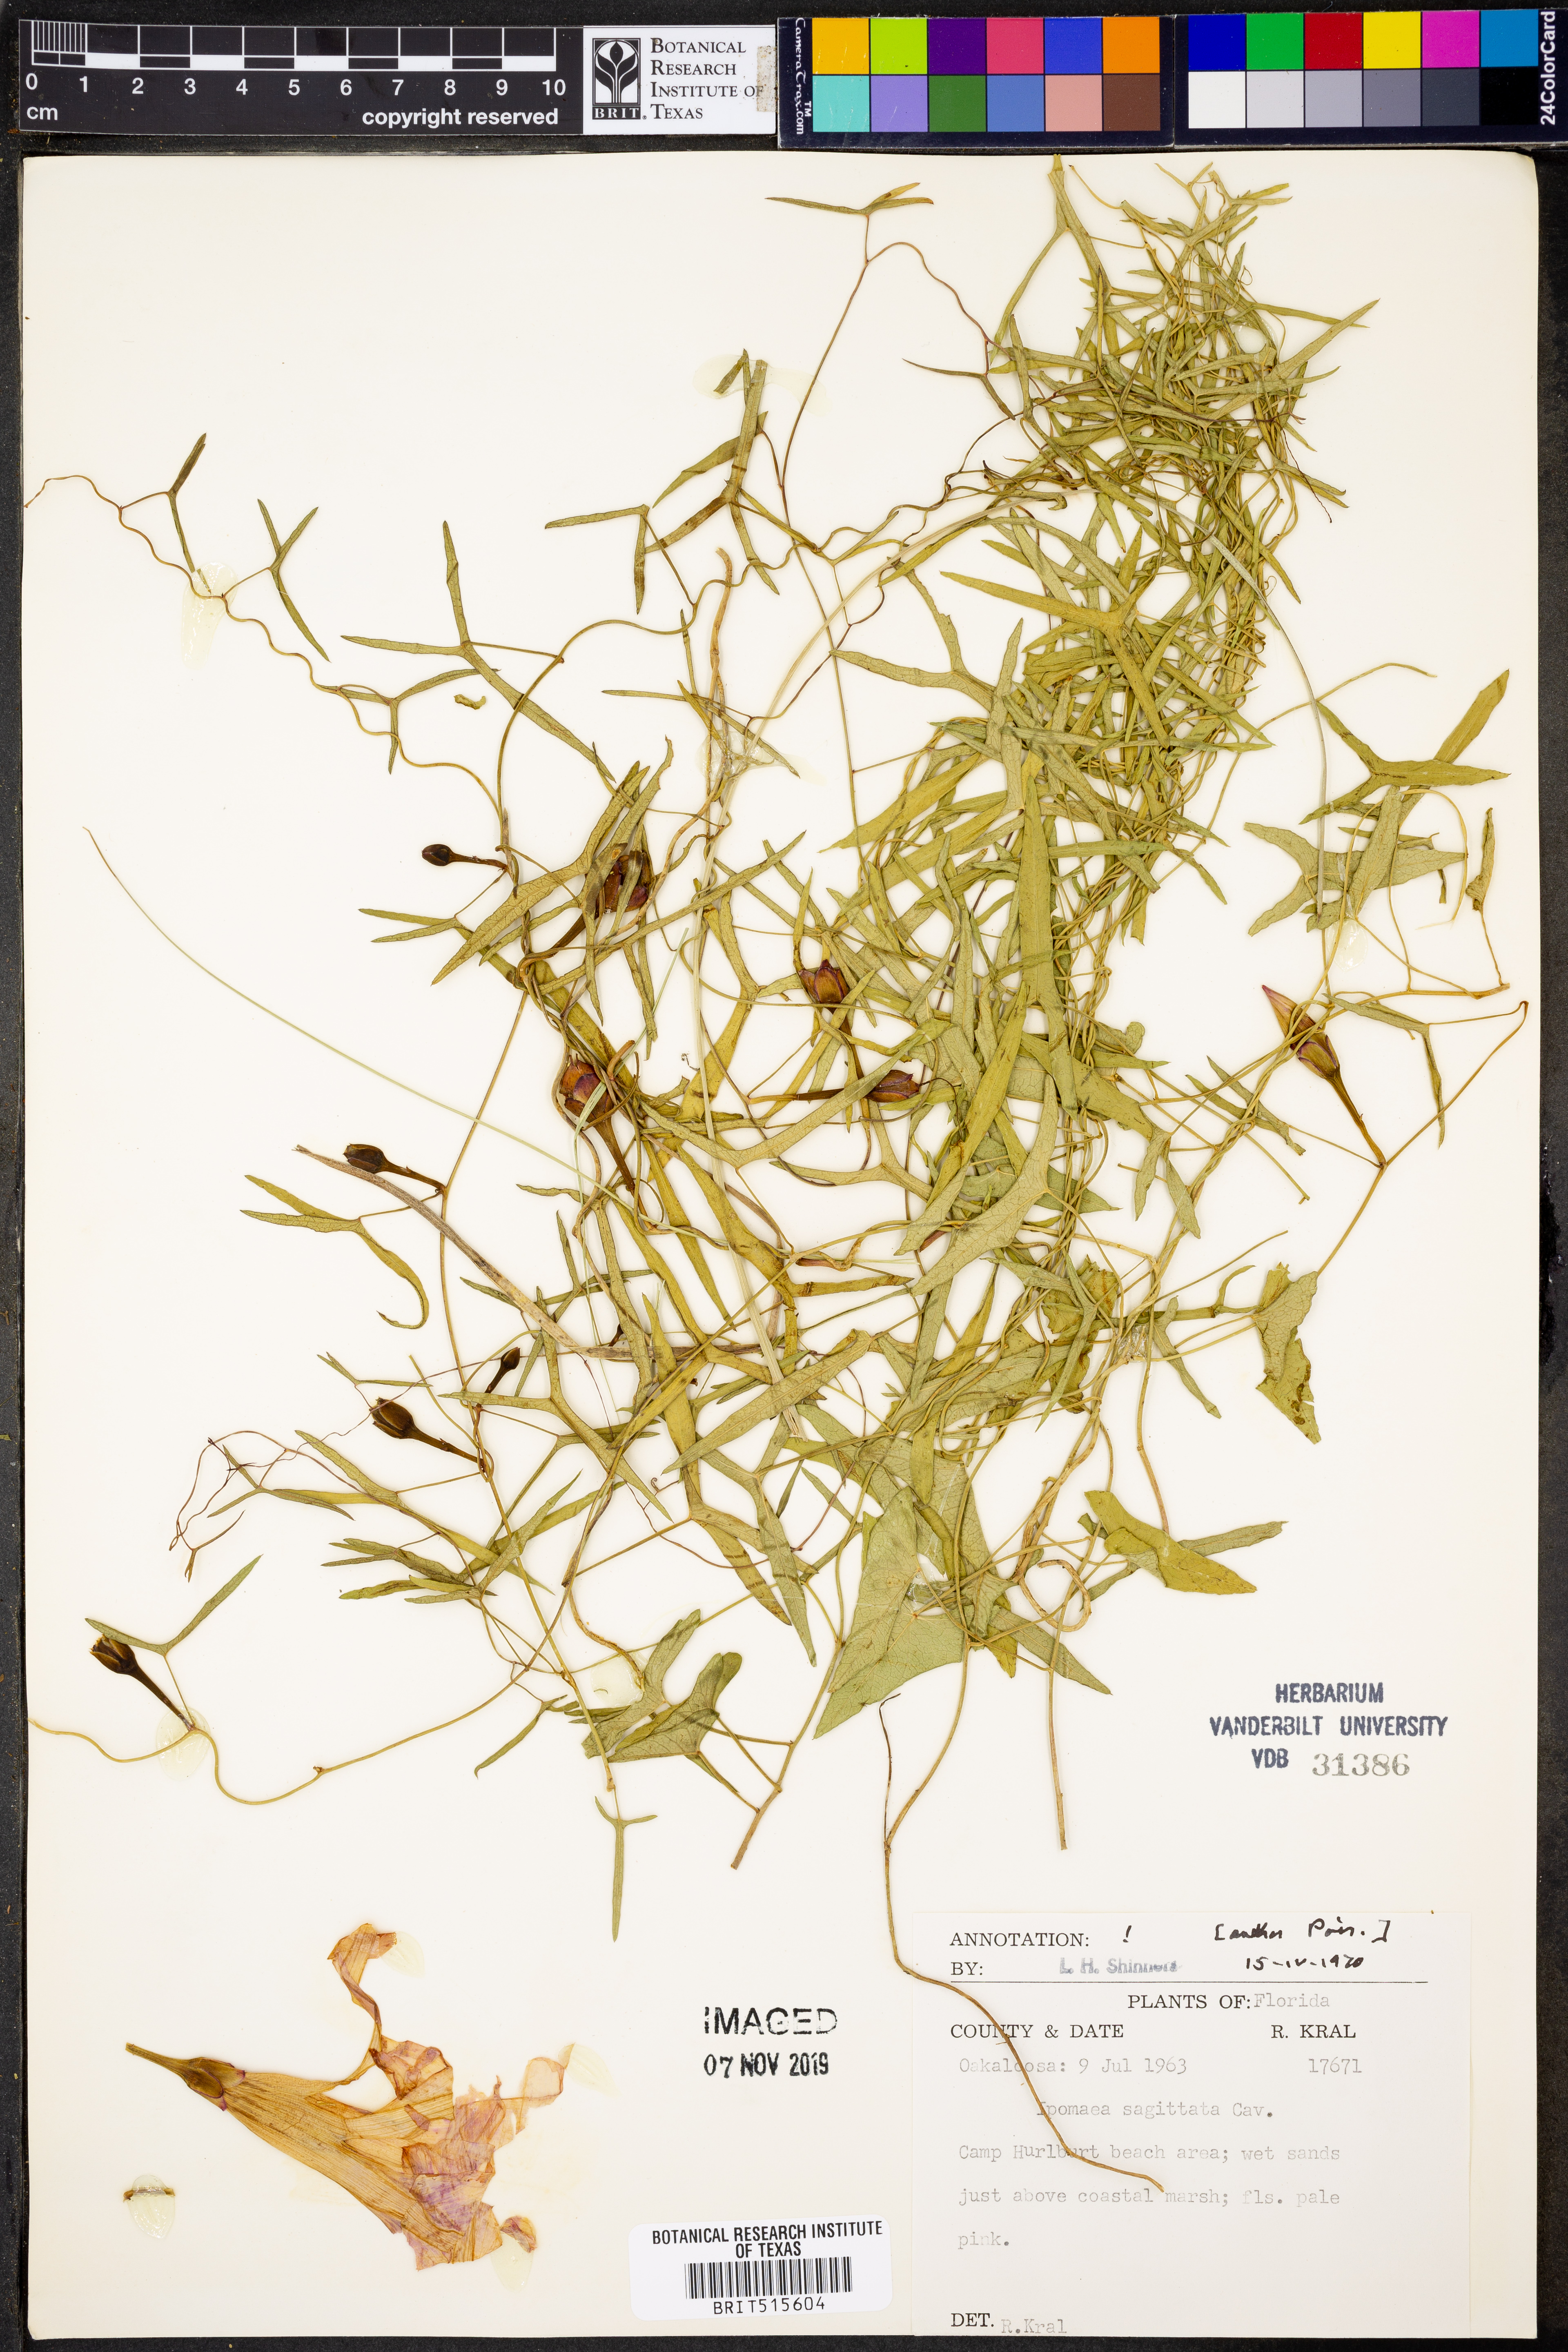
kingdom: Plantae
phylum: Tracheophyta
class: Magnoliopsida
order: Solanales
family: Convolvulaceae
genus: Ipomoea
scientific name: Ipomoea sinensis
